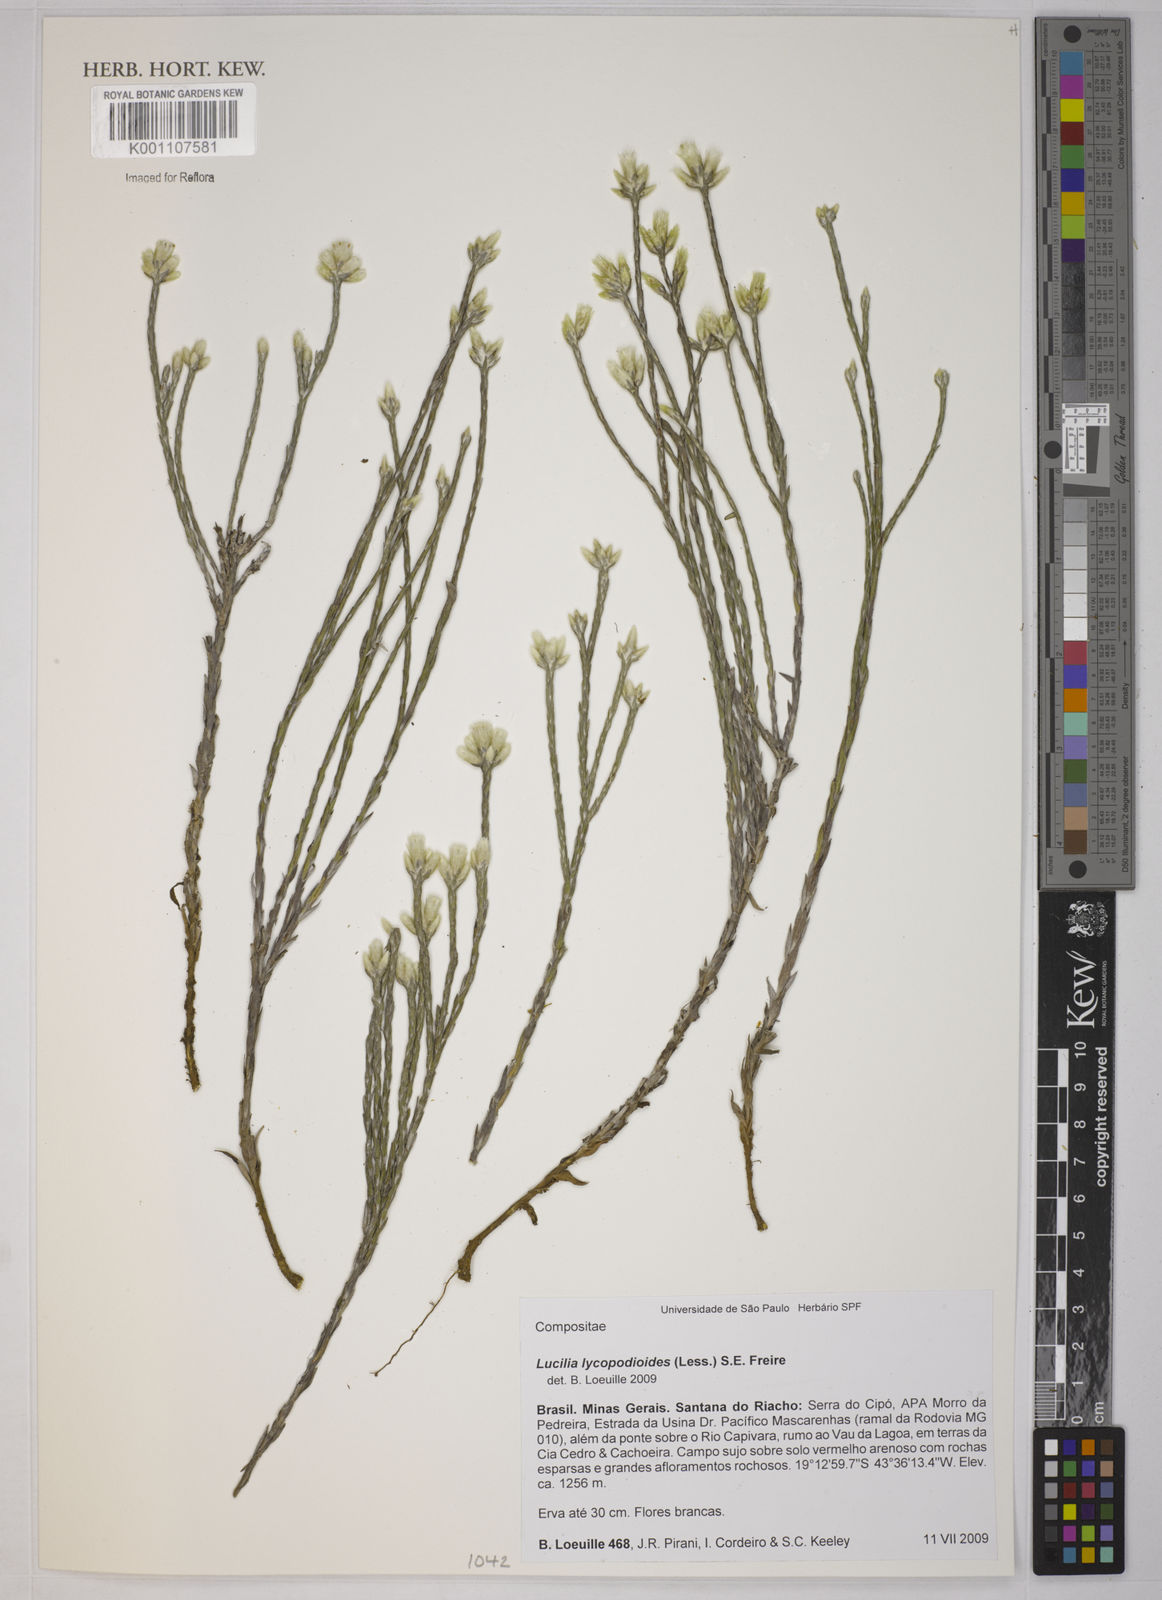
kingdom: Plantae
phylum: Tracheophyta
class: Magnoliopsida
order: Asterales
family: Asteraceae
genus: Lucilia
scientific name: Lucilia lycopodioides
